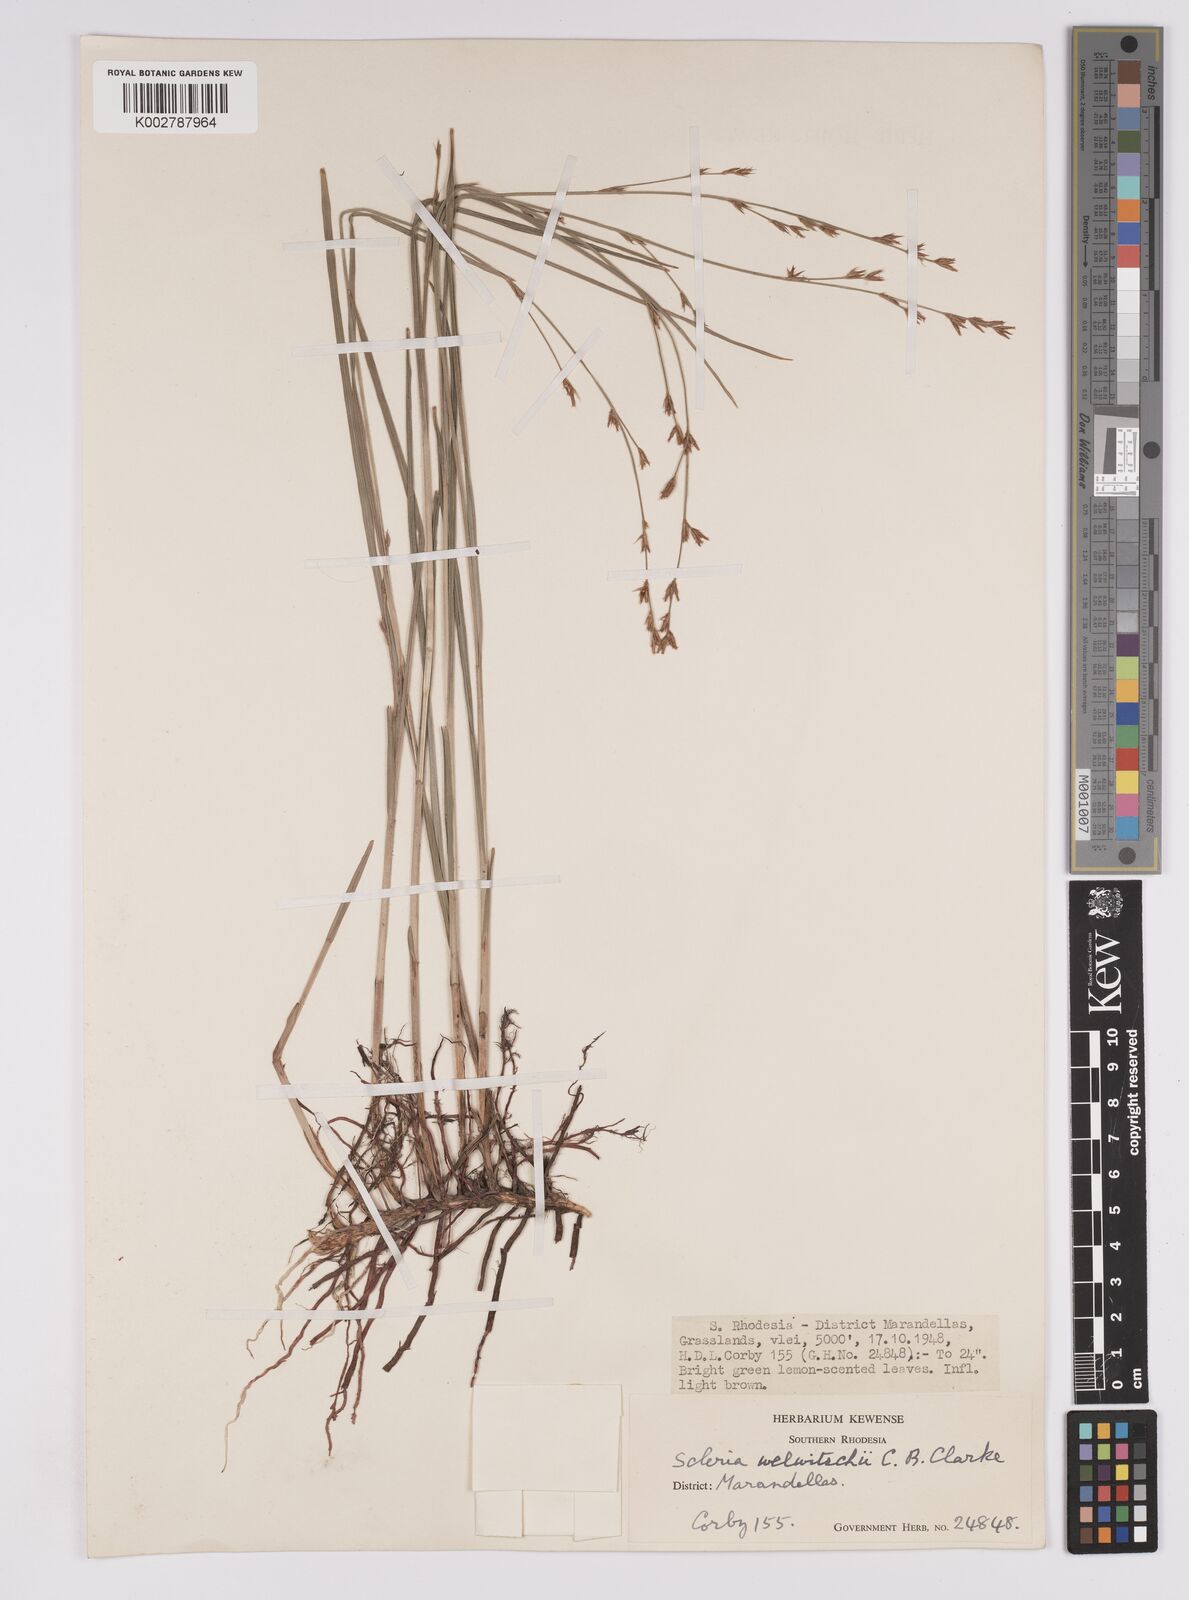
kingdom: Plantae
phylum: Tracheophyta
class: Liliopsida
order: Poales
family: Cyperaceae
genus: Scleria
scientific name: Scleria welwitschii
